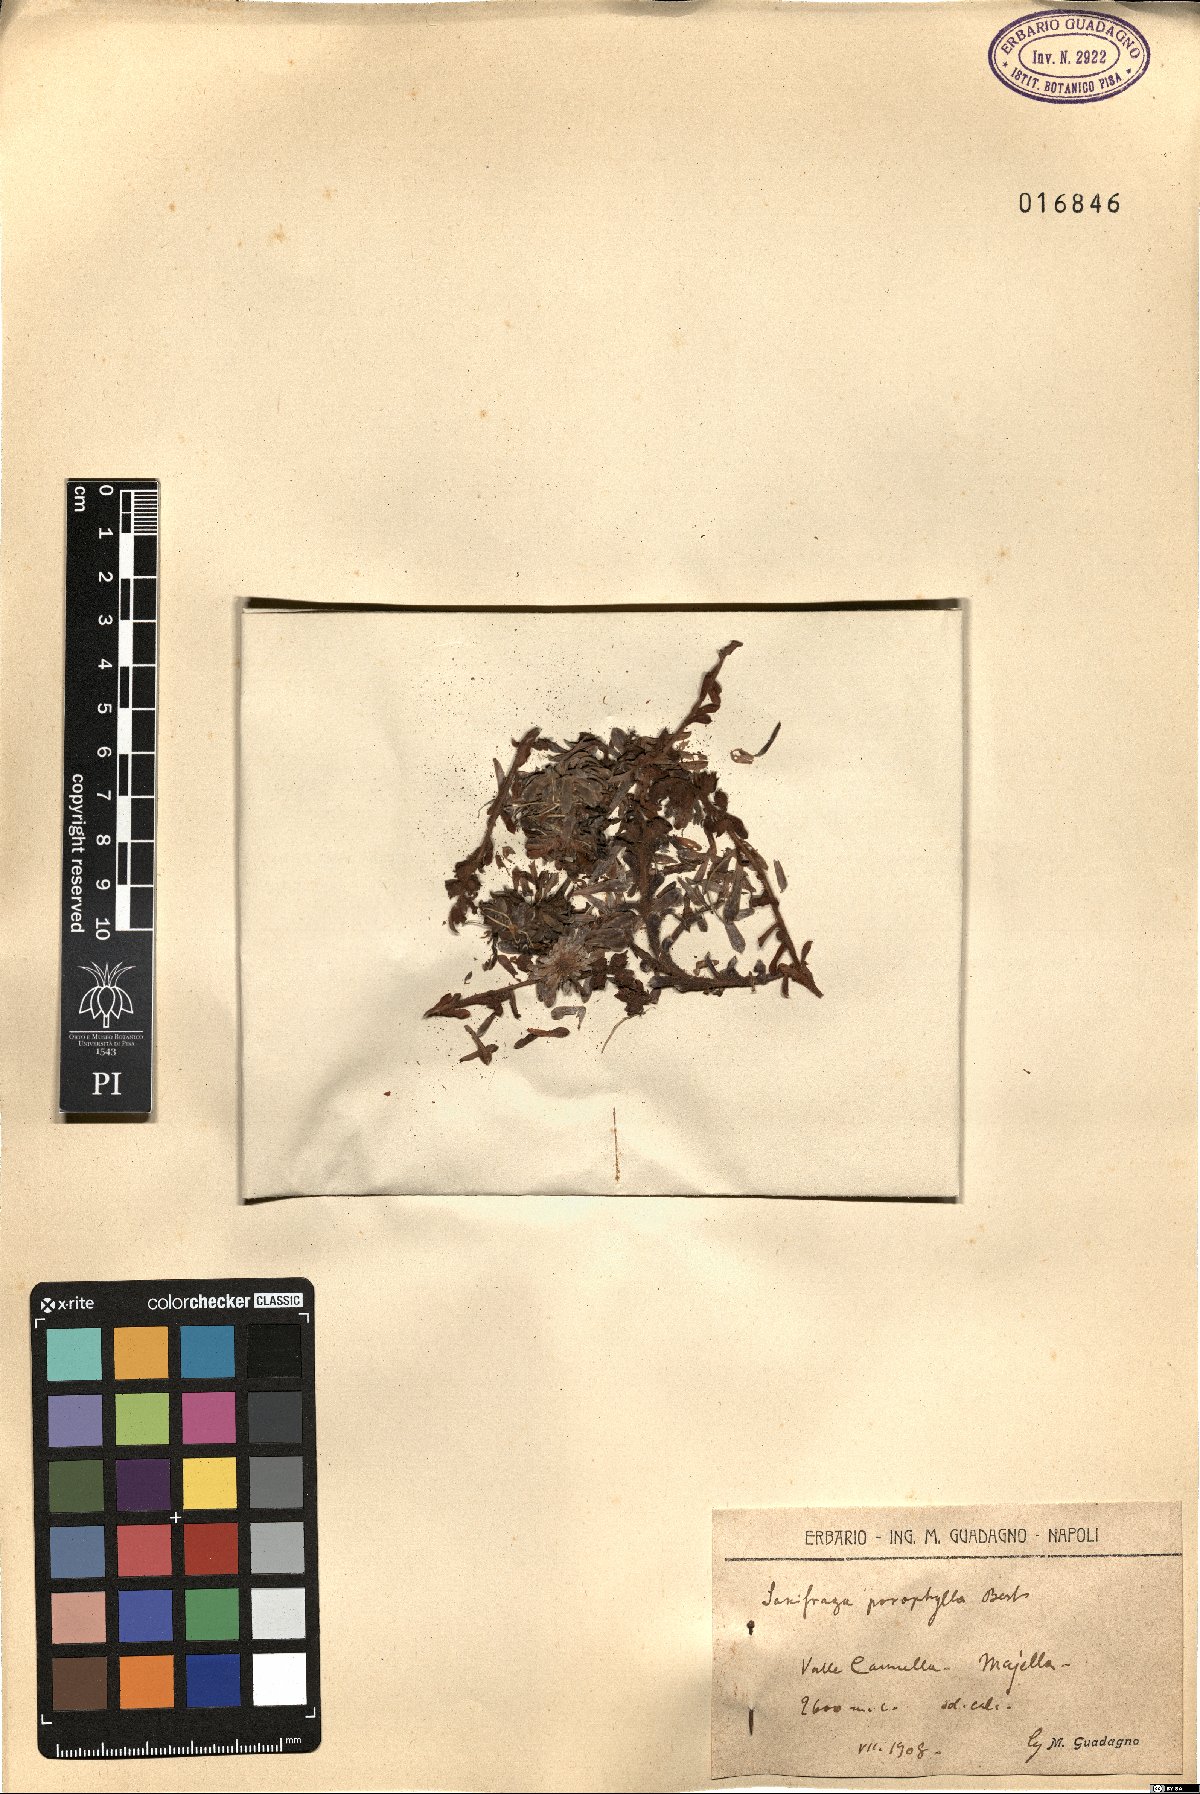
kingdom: Plantae
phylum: Tracheophyta
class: Magnoliopsida
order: Saxifragales
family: Saxifragaceae
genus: Saxifraga
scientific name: Saxifraga porophylla
